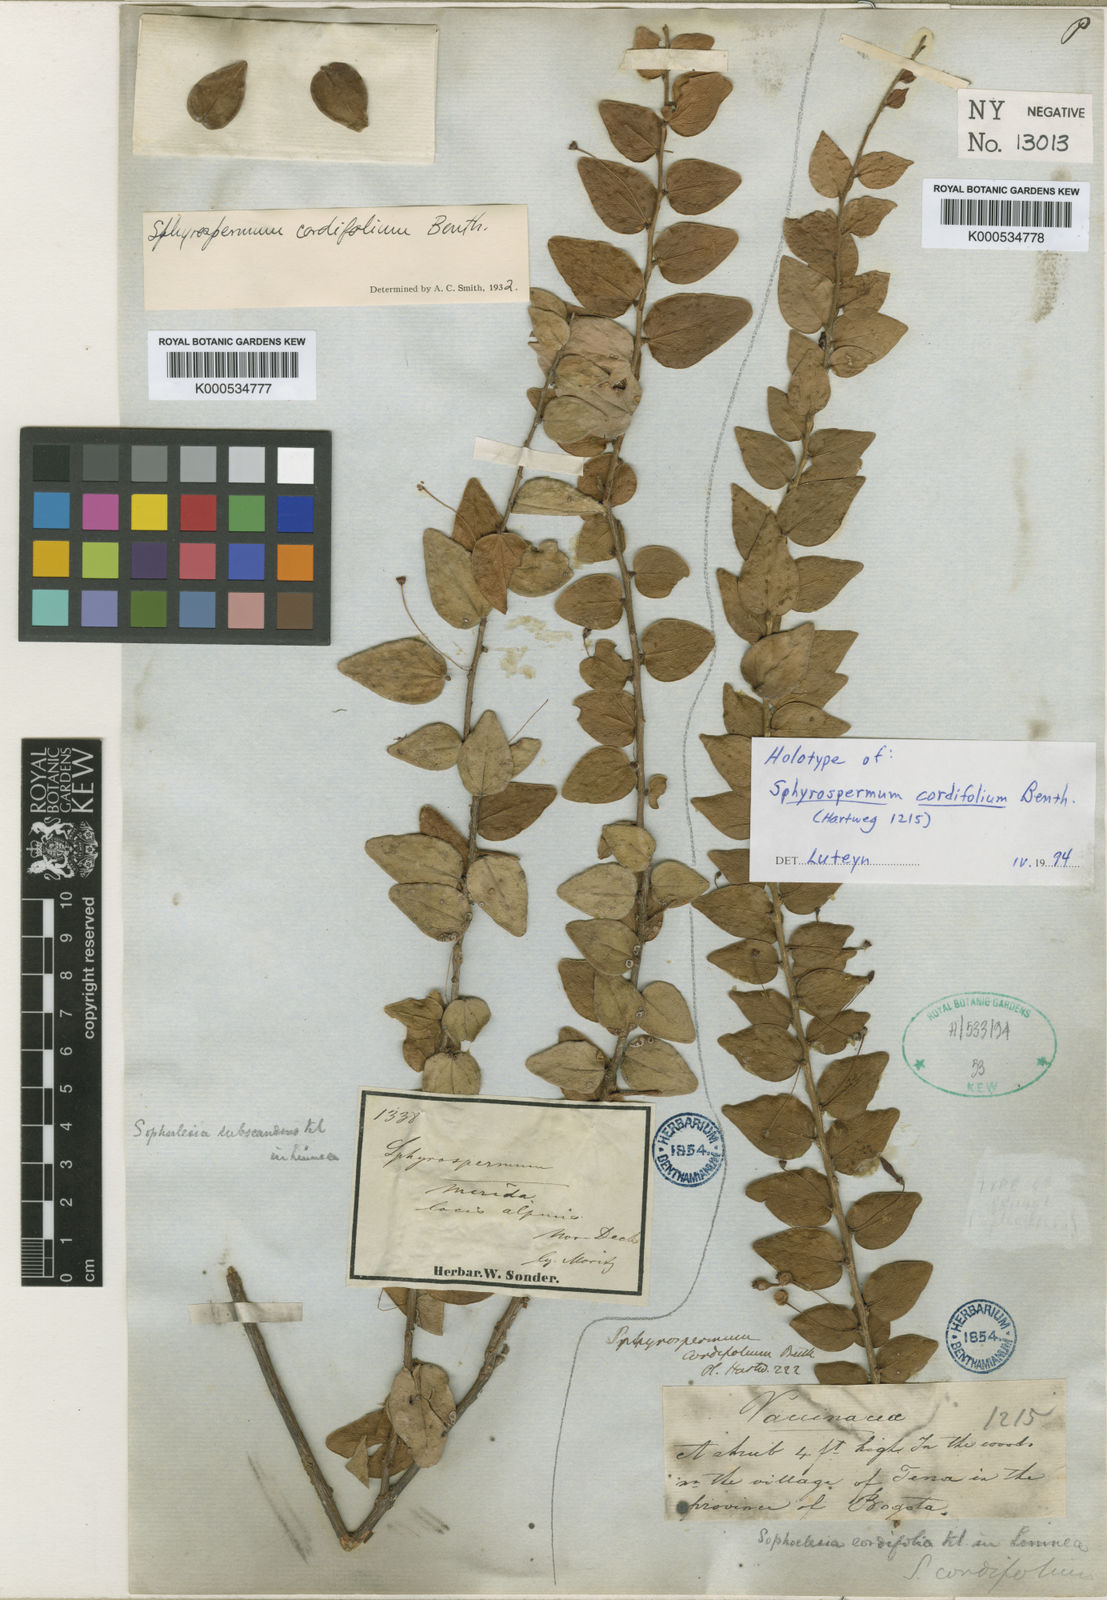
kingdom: Plantae
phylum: Tracheophyta
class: Magnoliopsida
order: Ericales
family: Ericaceae
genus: Sphyrospermum
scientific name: Sphyrospermum cordifolium
